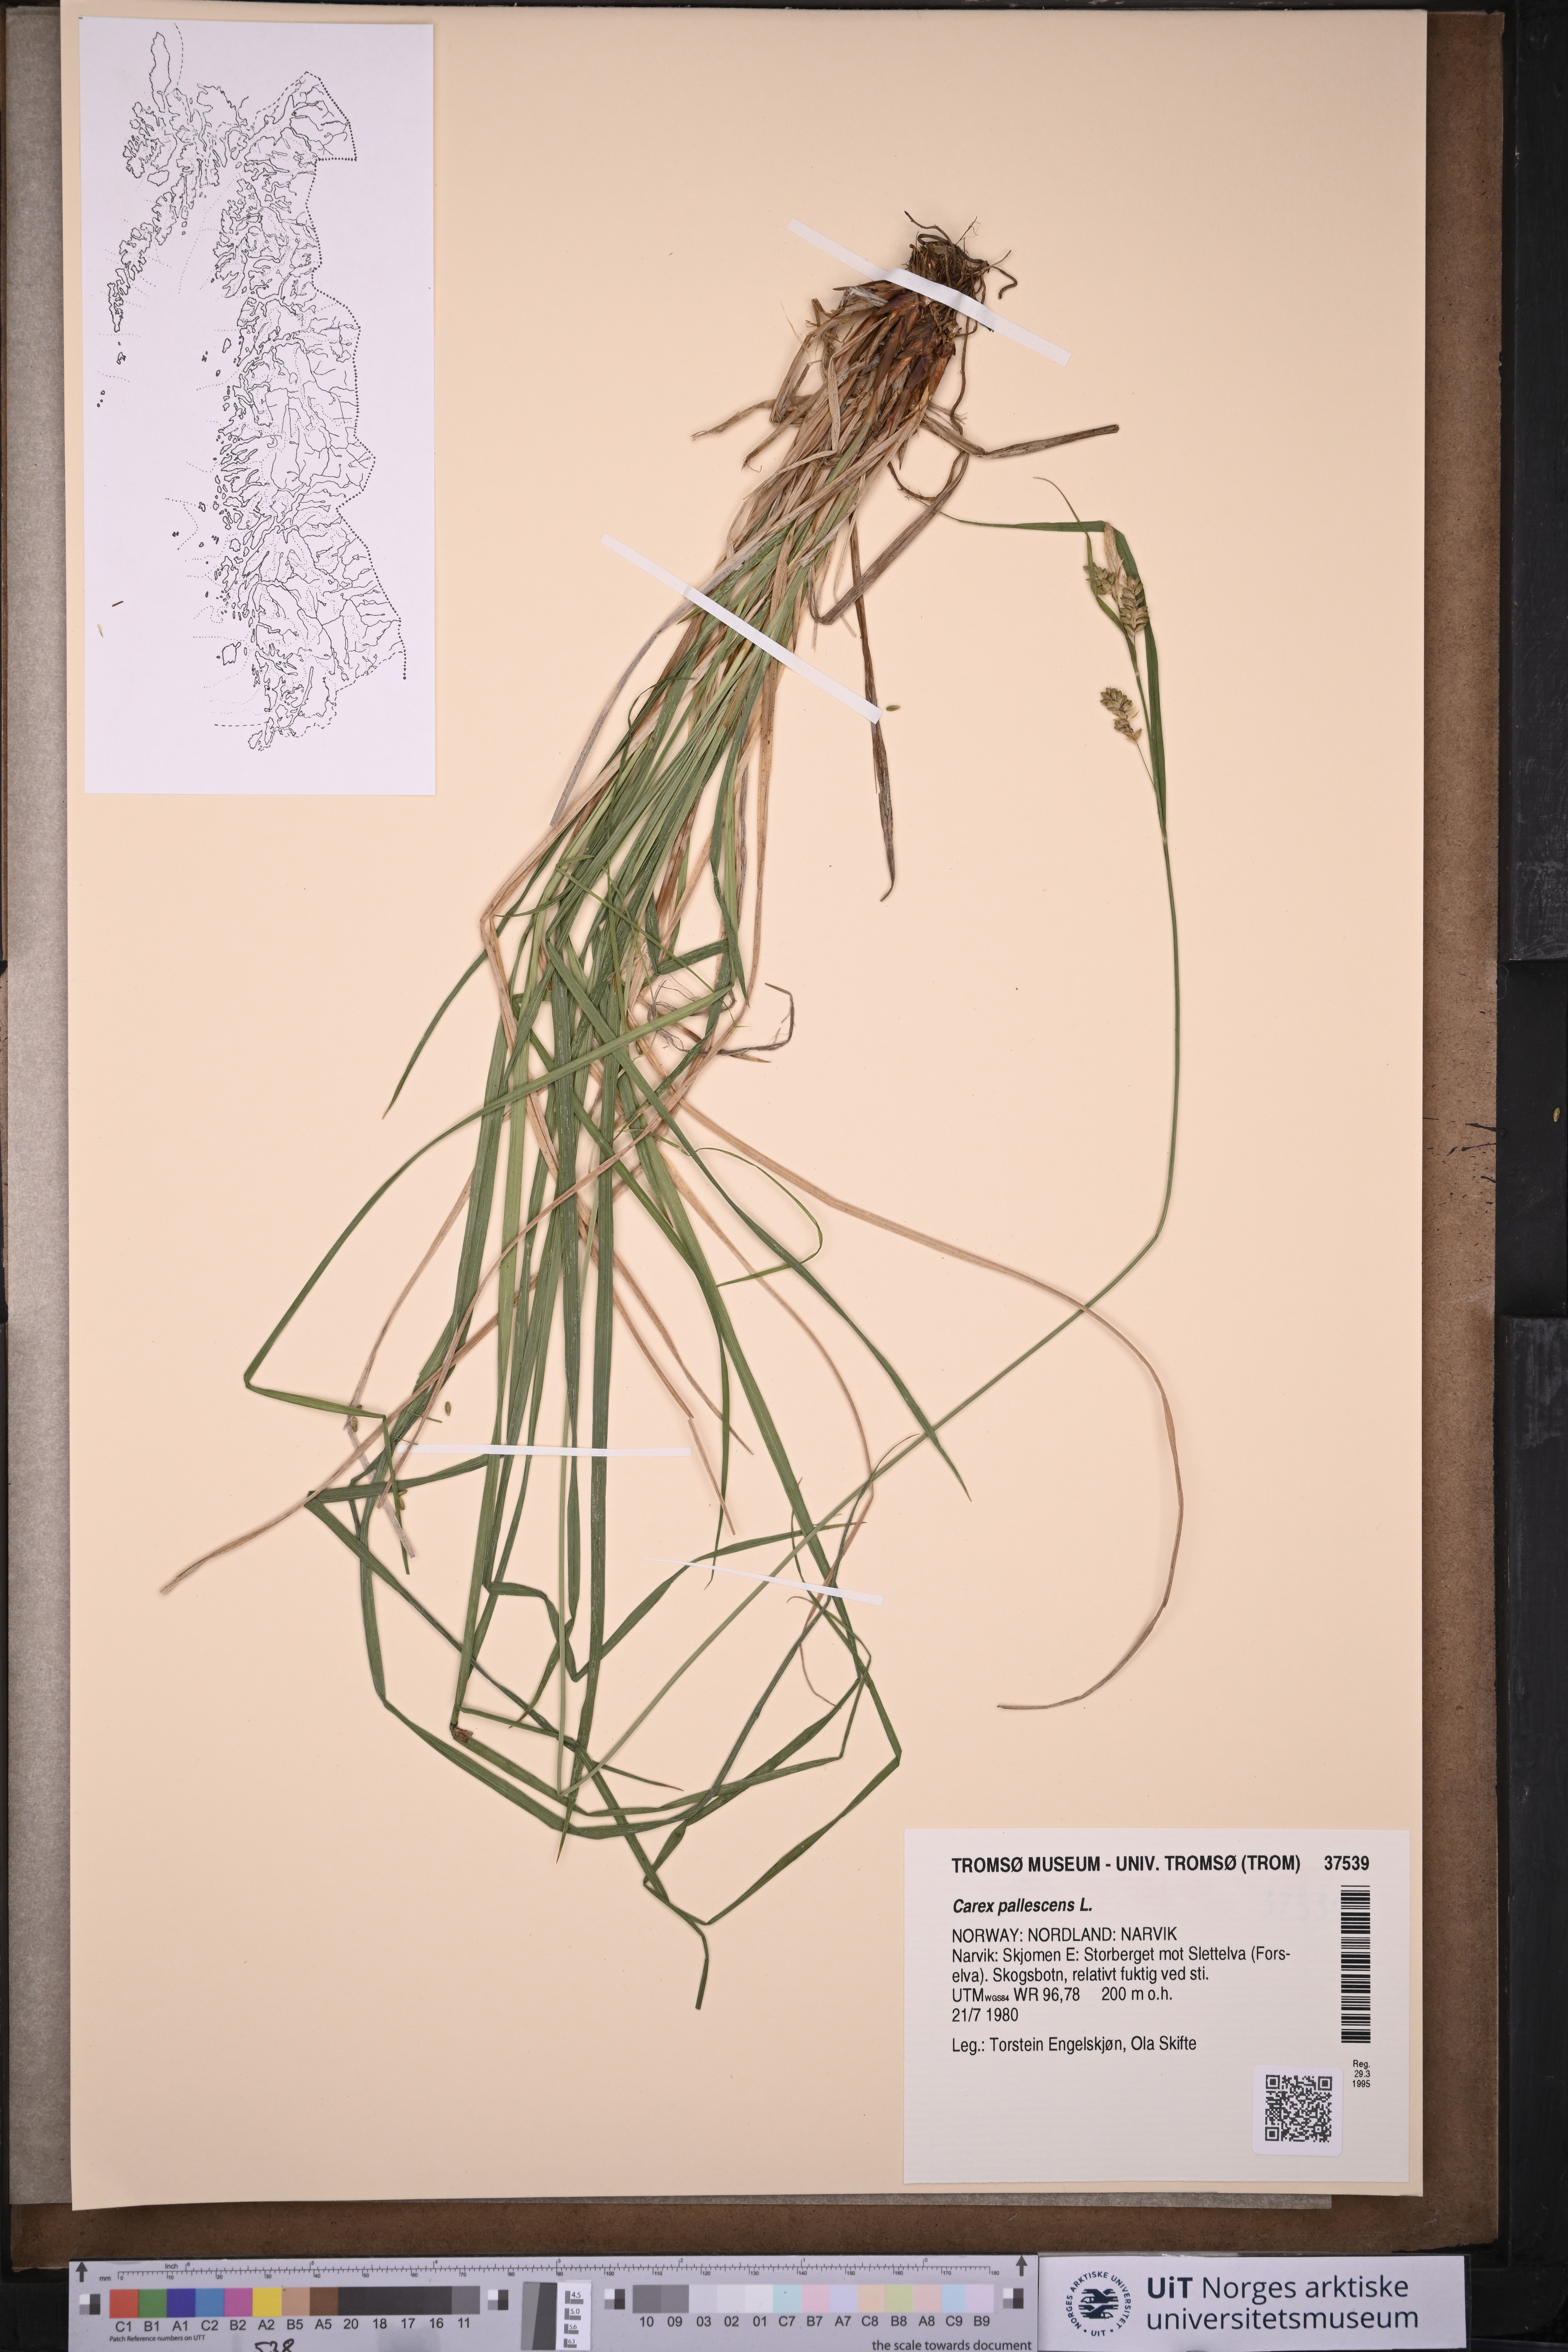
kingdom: Plantae
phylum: Tracheophyta
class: Liliopsida
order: Poales
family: Cyperaceae
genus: Carex
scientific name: Carex pallescens
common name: Pale sedge
